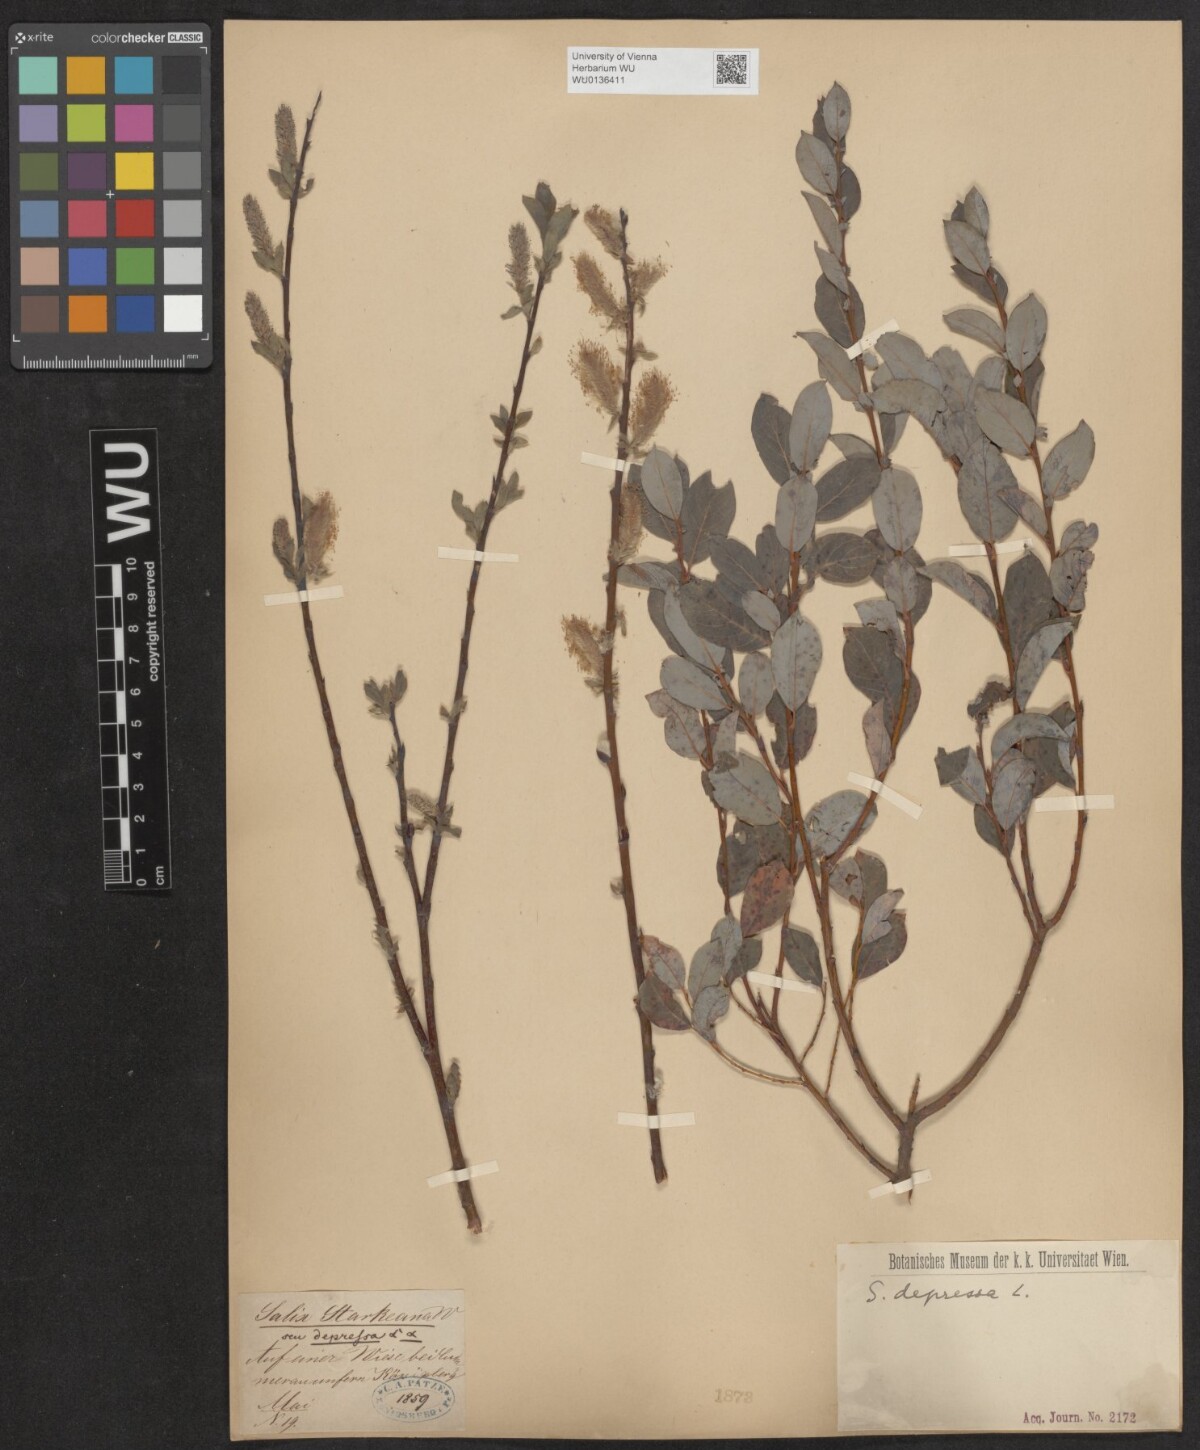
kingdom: Plantae
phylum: Tracheophyta
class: Magnoliopsida
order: Malpighiales
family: Salicaceae
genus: Salix
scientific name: Salix lanata
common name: Woolly willow
